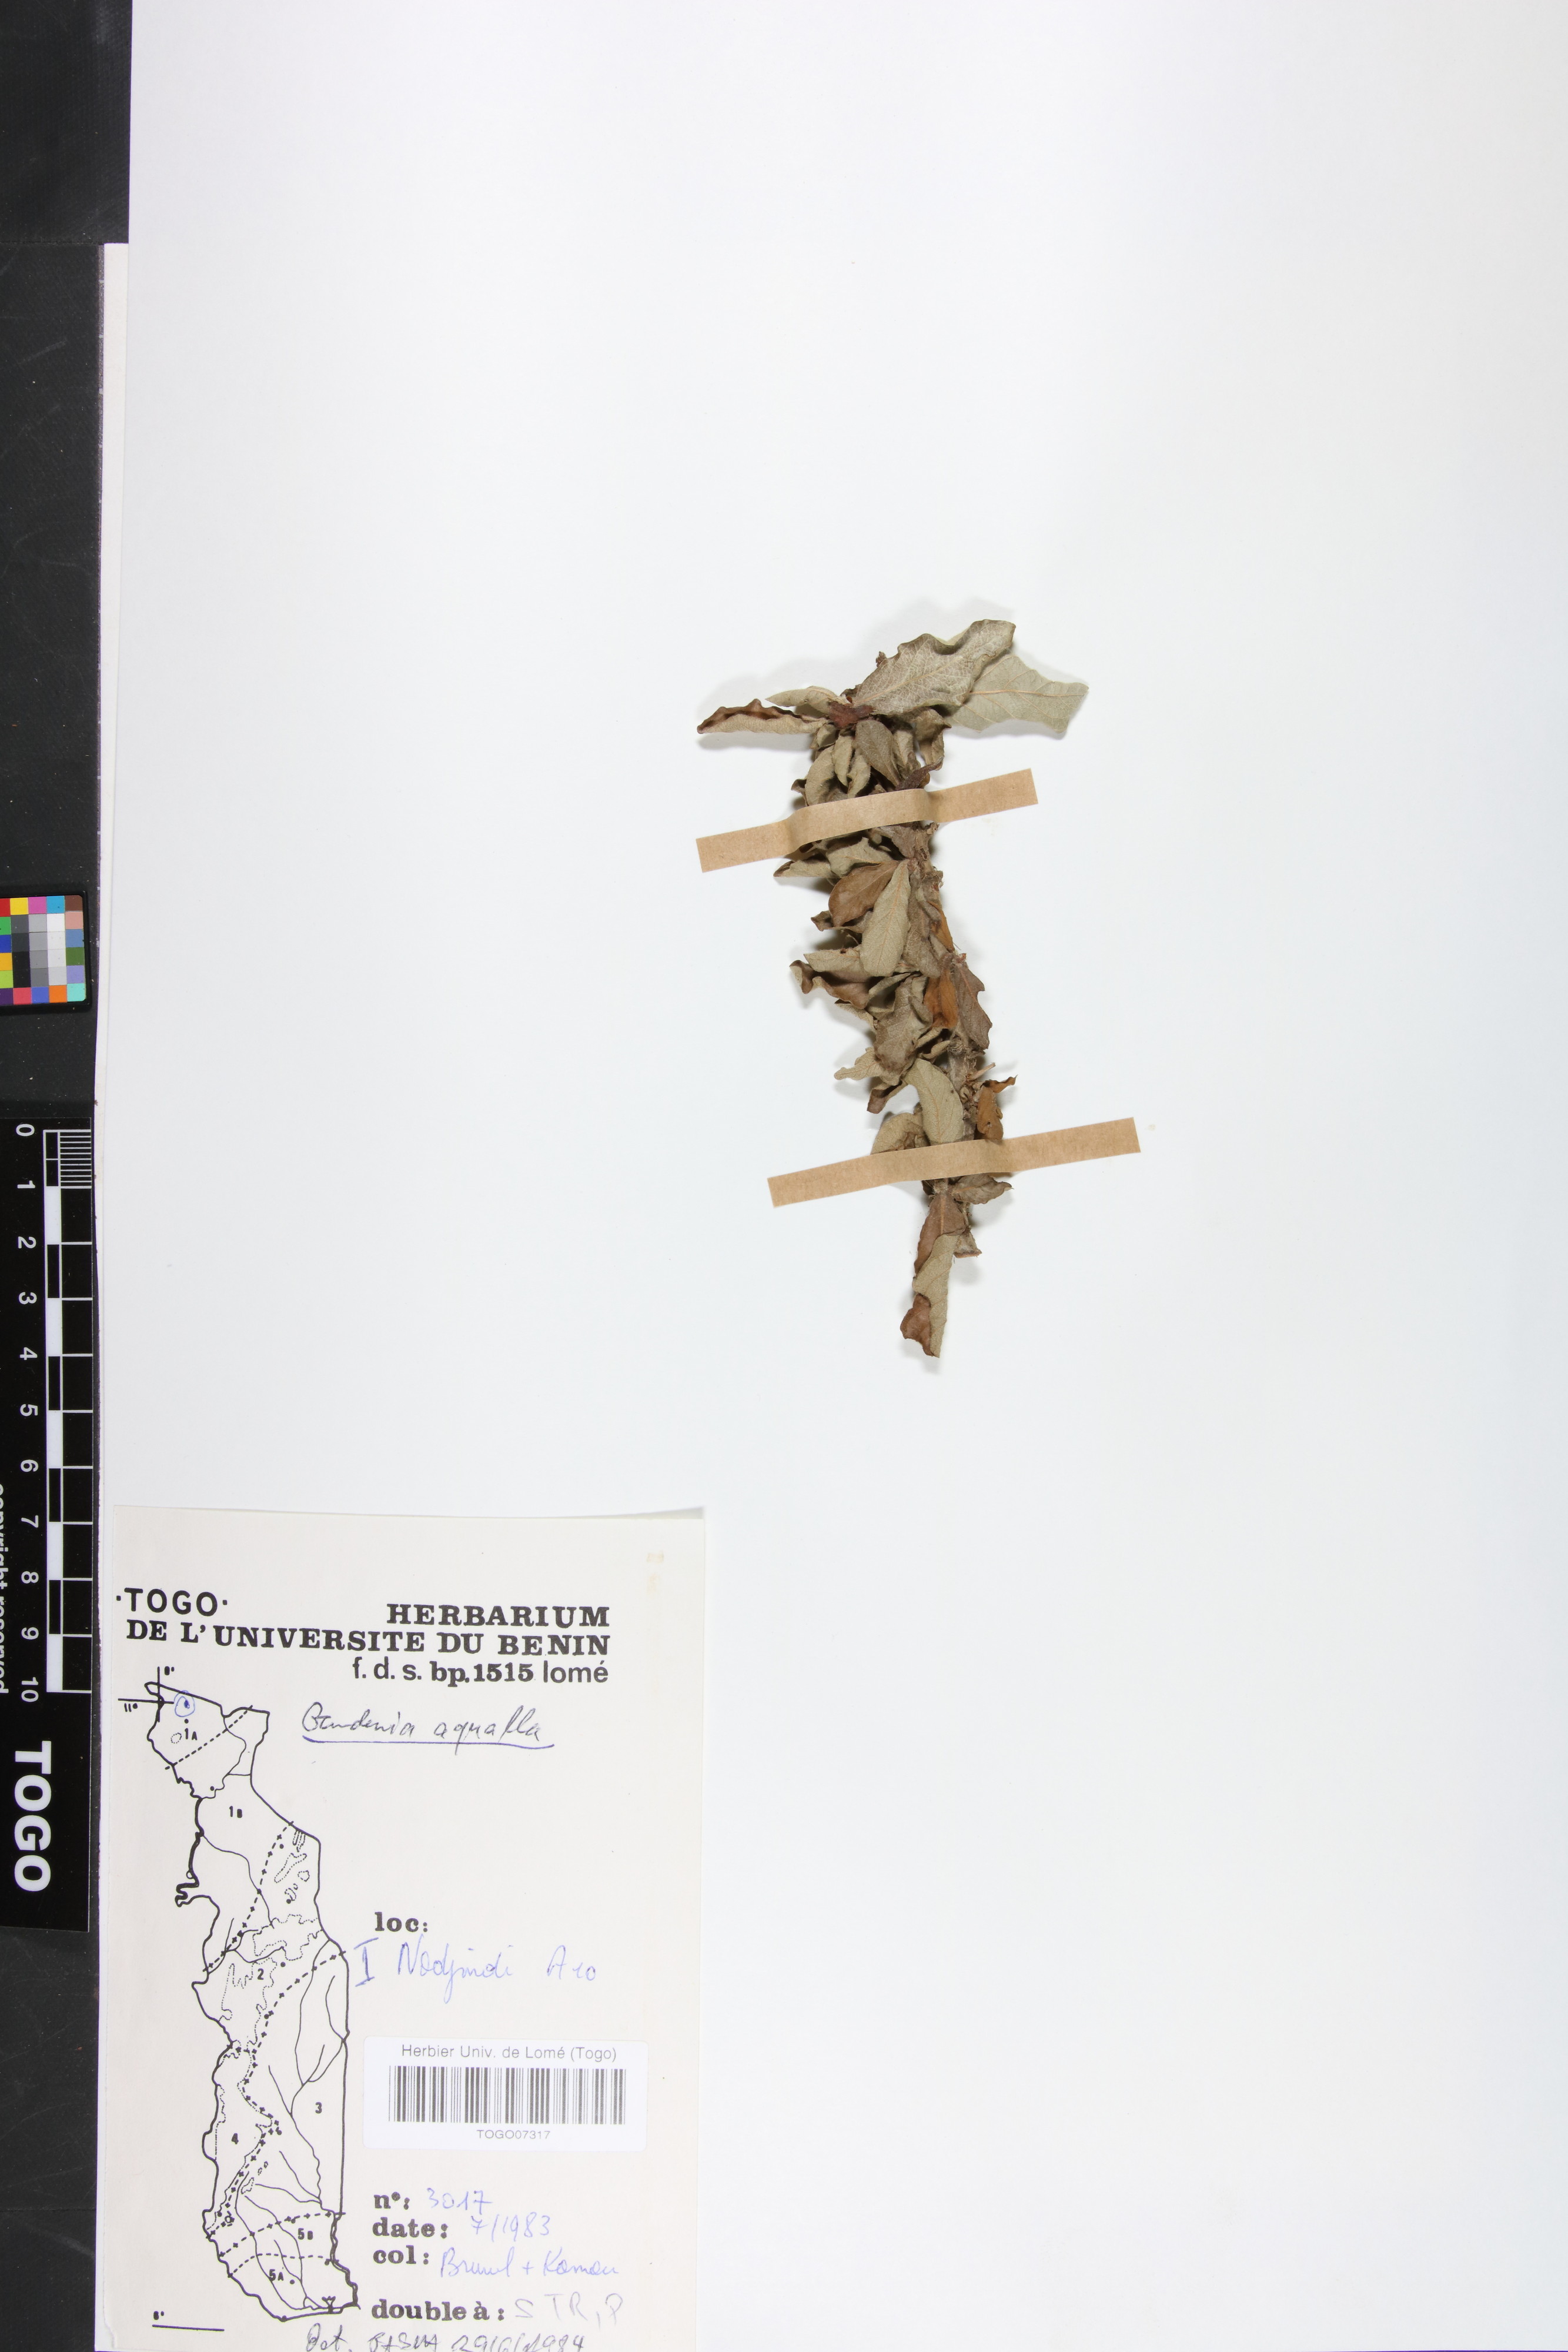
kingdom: Plantae
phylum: Tracheophyta
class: Magnoliopsida
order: Gentianales
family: Rubiaceae
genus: Gardenia
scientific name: Gardenia aqualla
